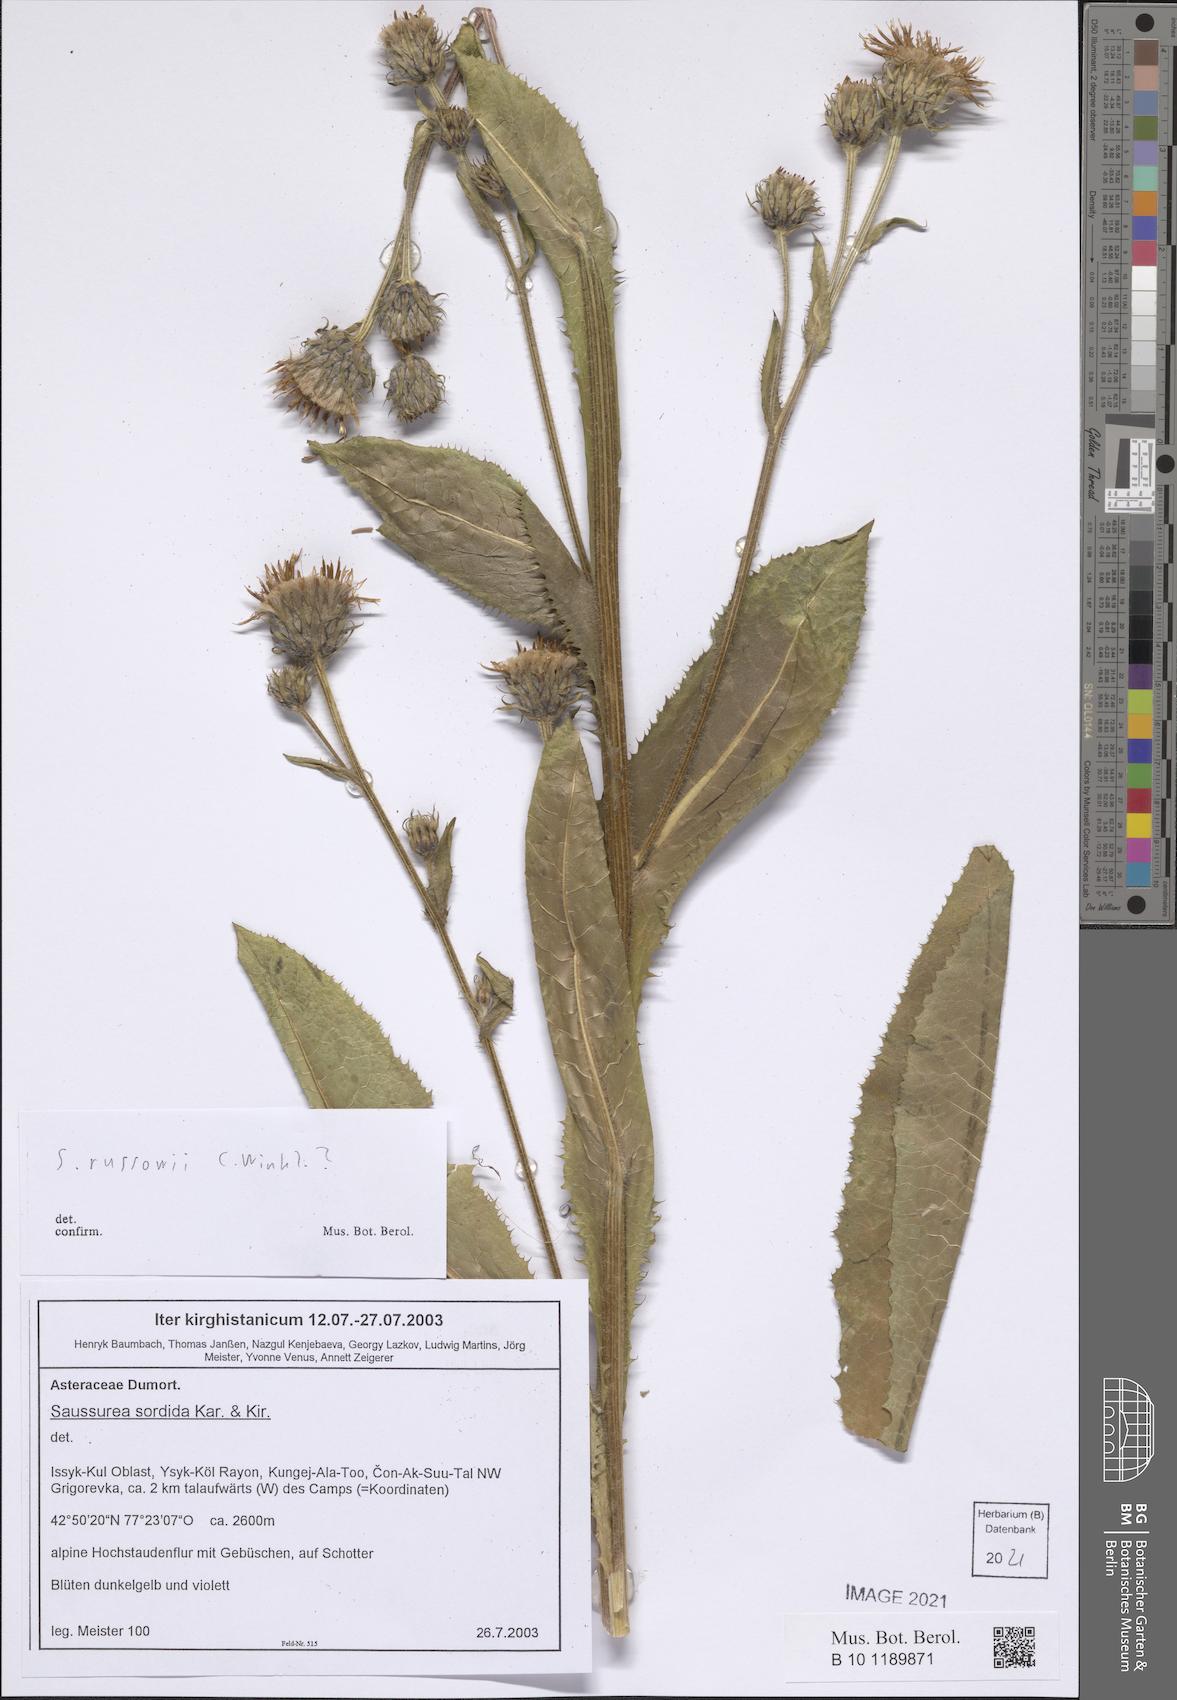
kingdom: Plantae
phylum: Tracheophyta
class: Magnoliopsida
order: Asterales
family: Asteraceae
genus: Saussurea
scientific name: Saussurea sordida
